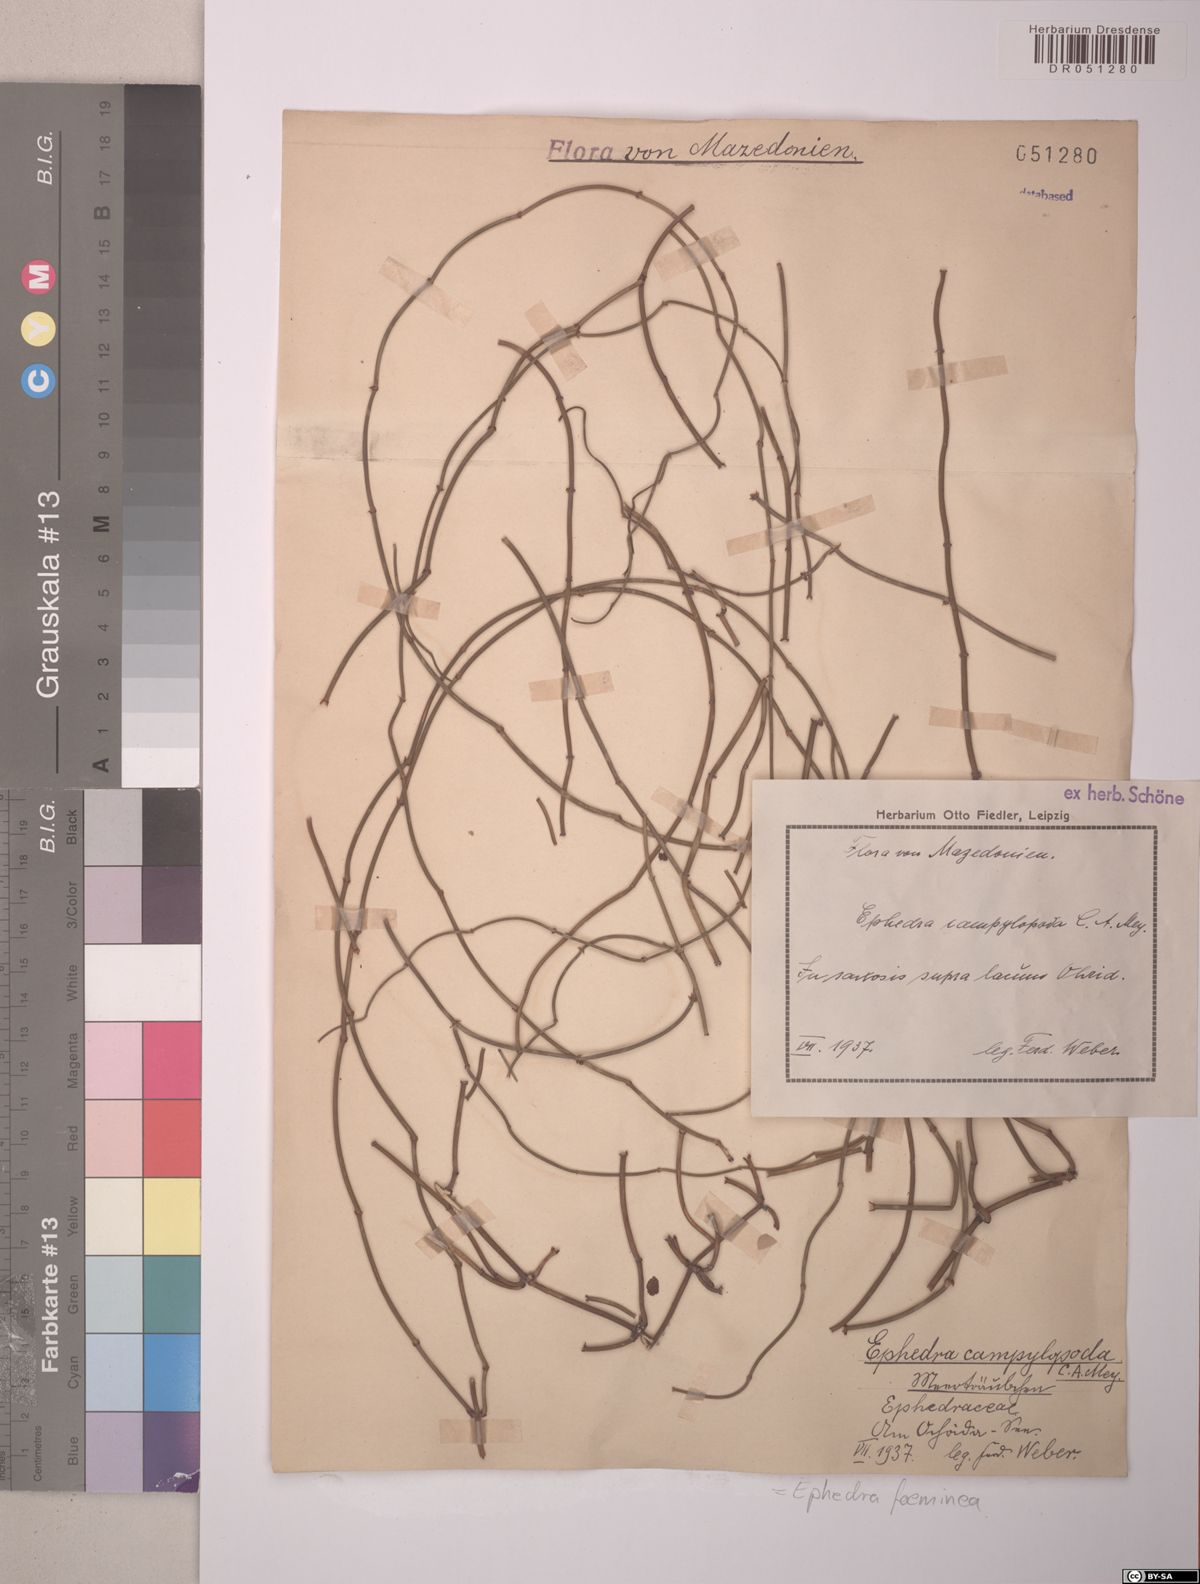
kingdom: Plantae
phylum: Tracheophyta
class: Gnetopsida
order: Ephedrales
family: Ephedraceae
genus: Ephedra
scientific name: Ephedra foeminea
